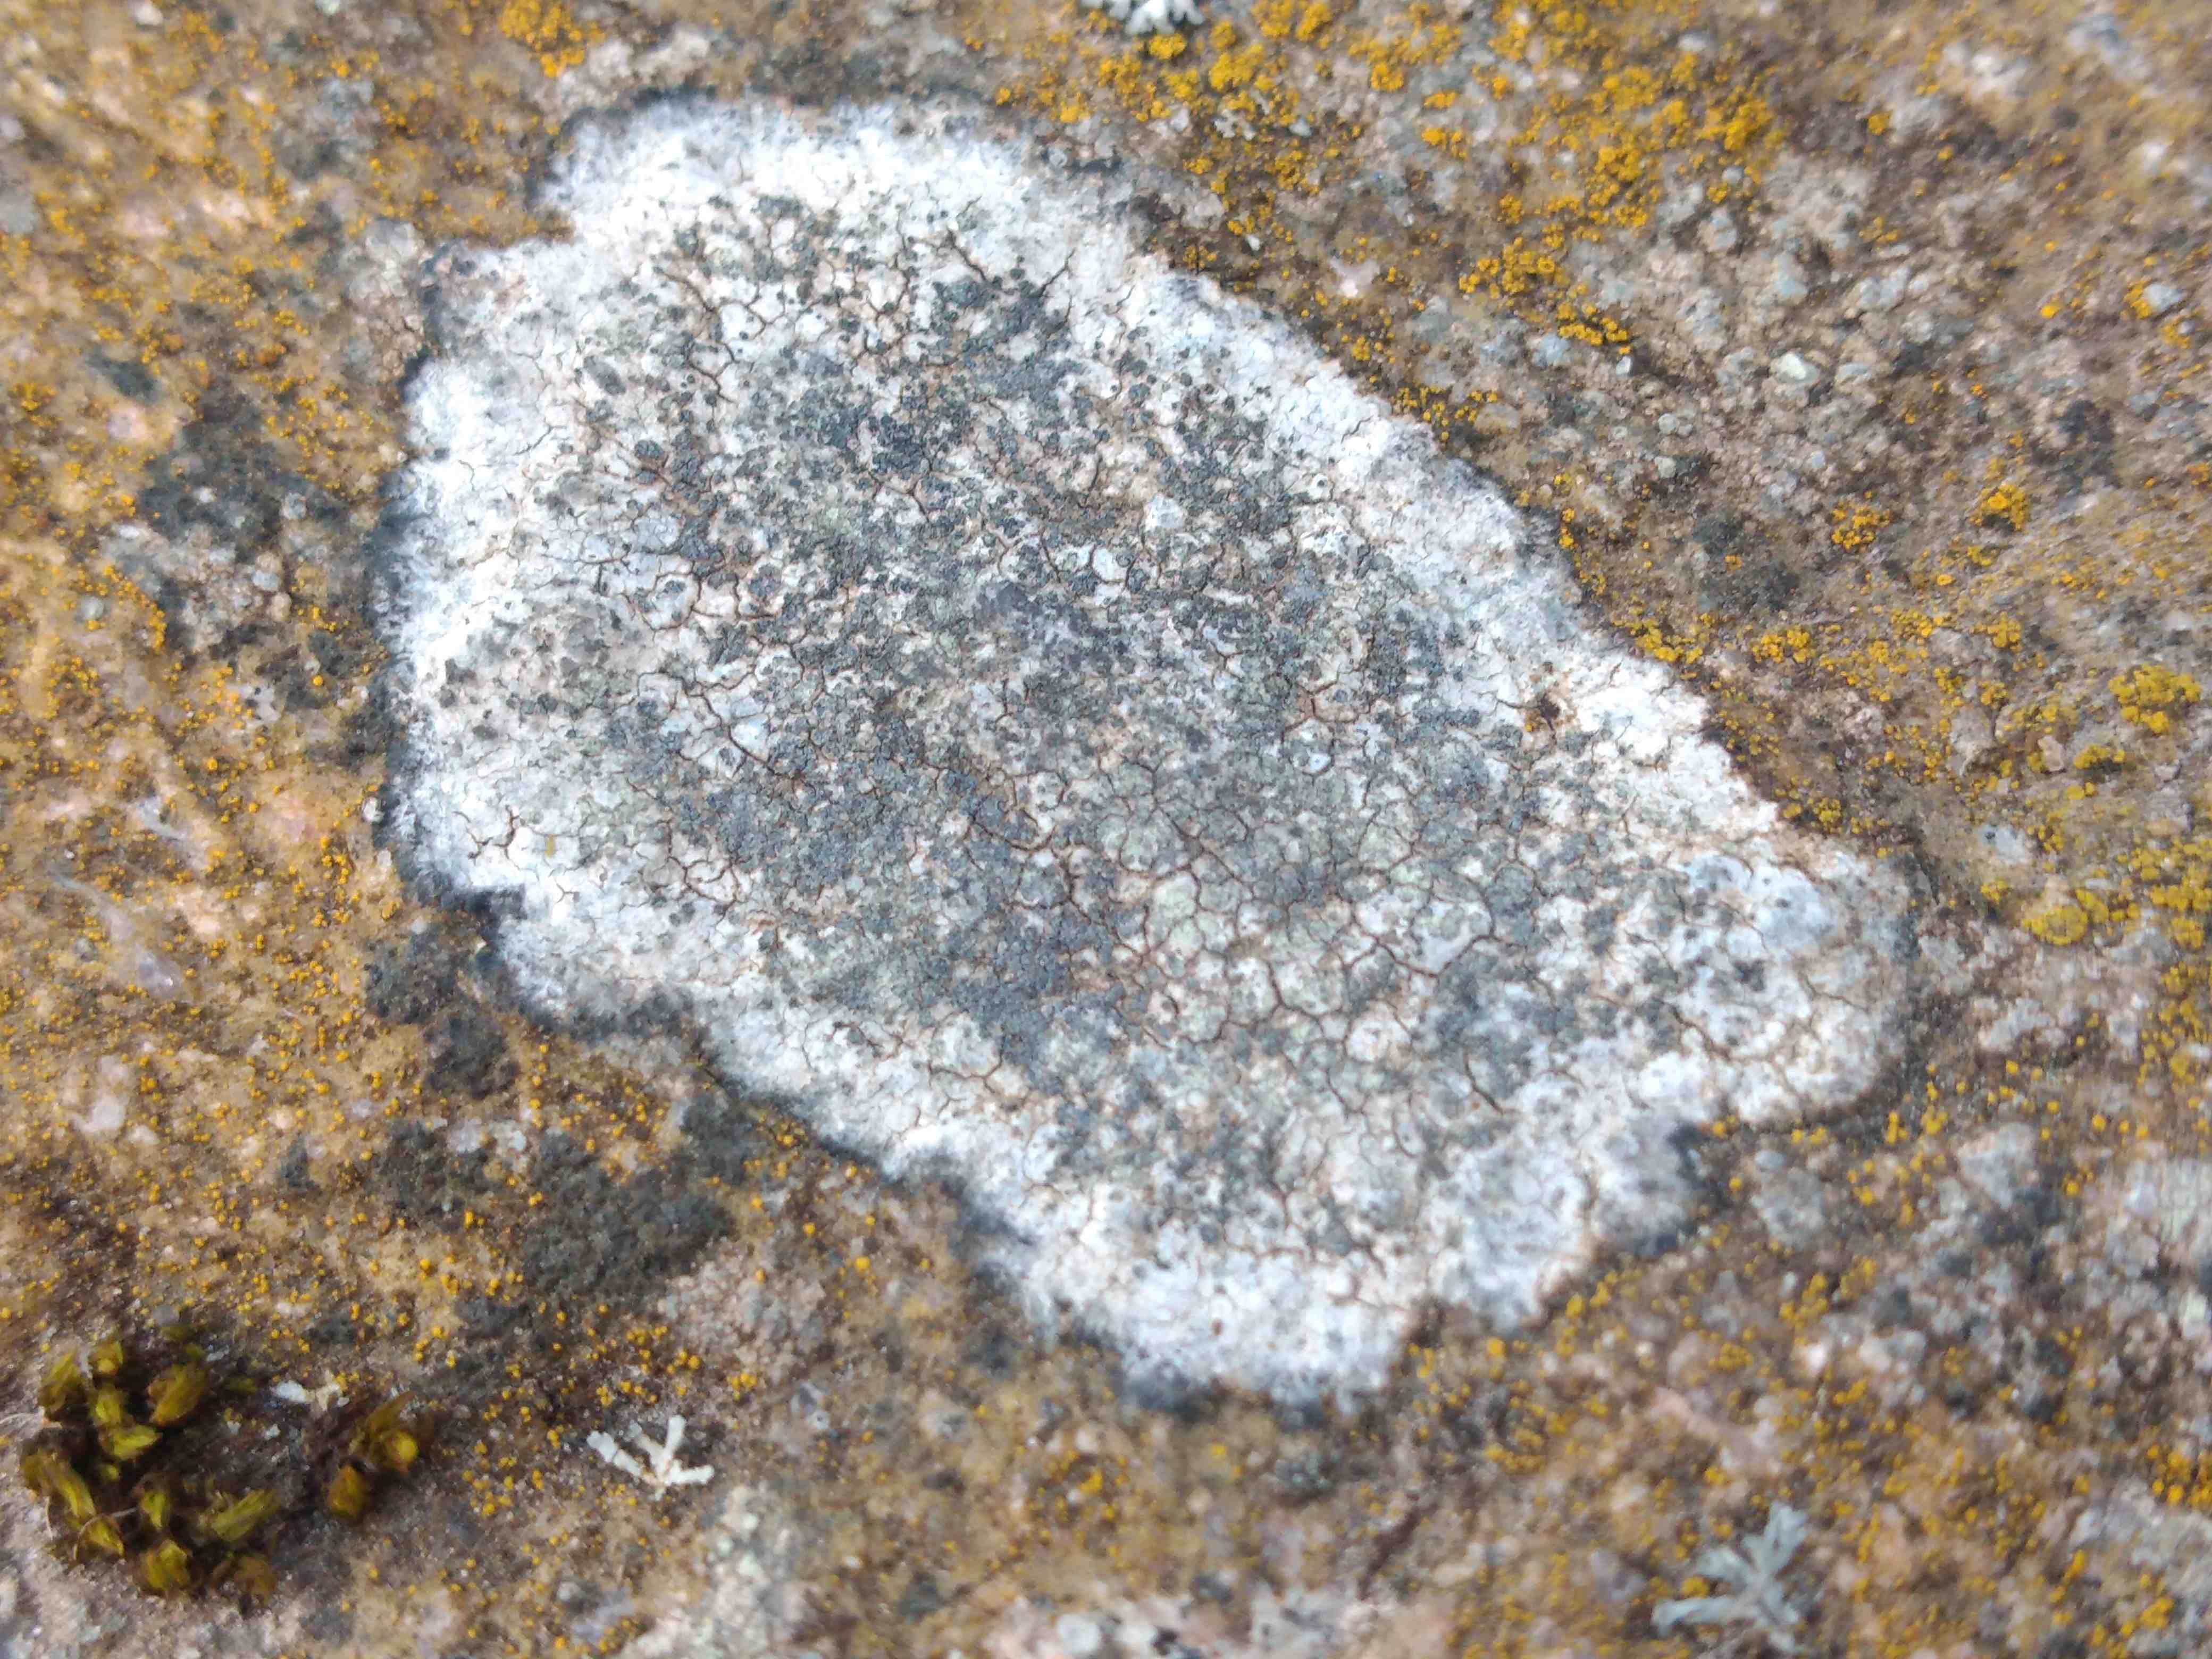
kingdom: Fungi
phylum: Ascomycota
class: Lecanoromycetes
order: Lecideales
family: Lecideaceae
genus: Porpidia
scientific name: Porpidia
